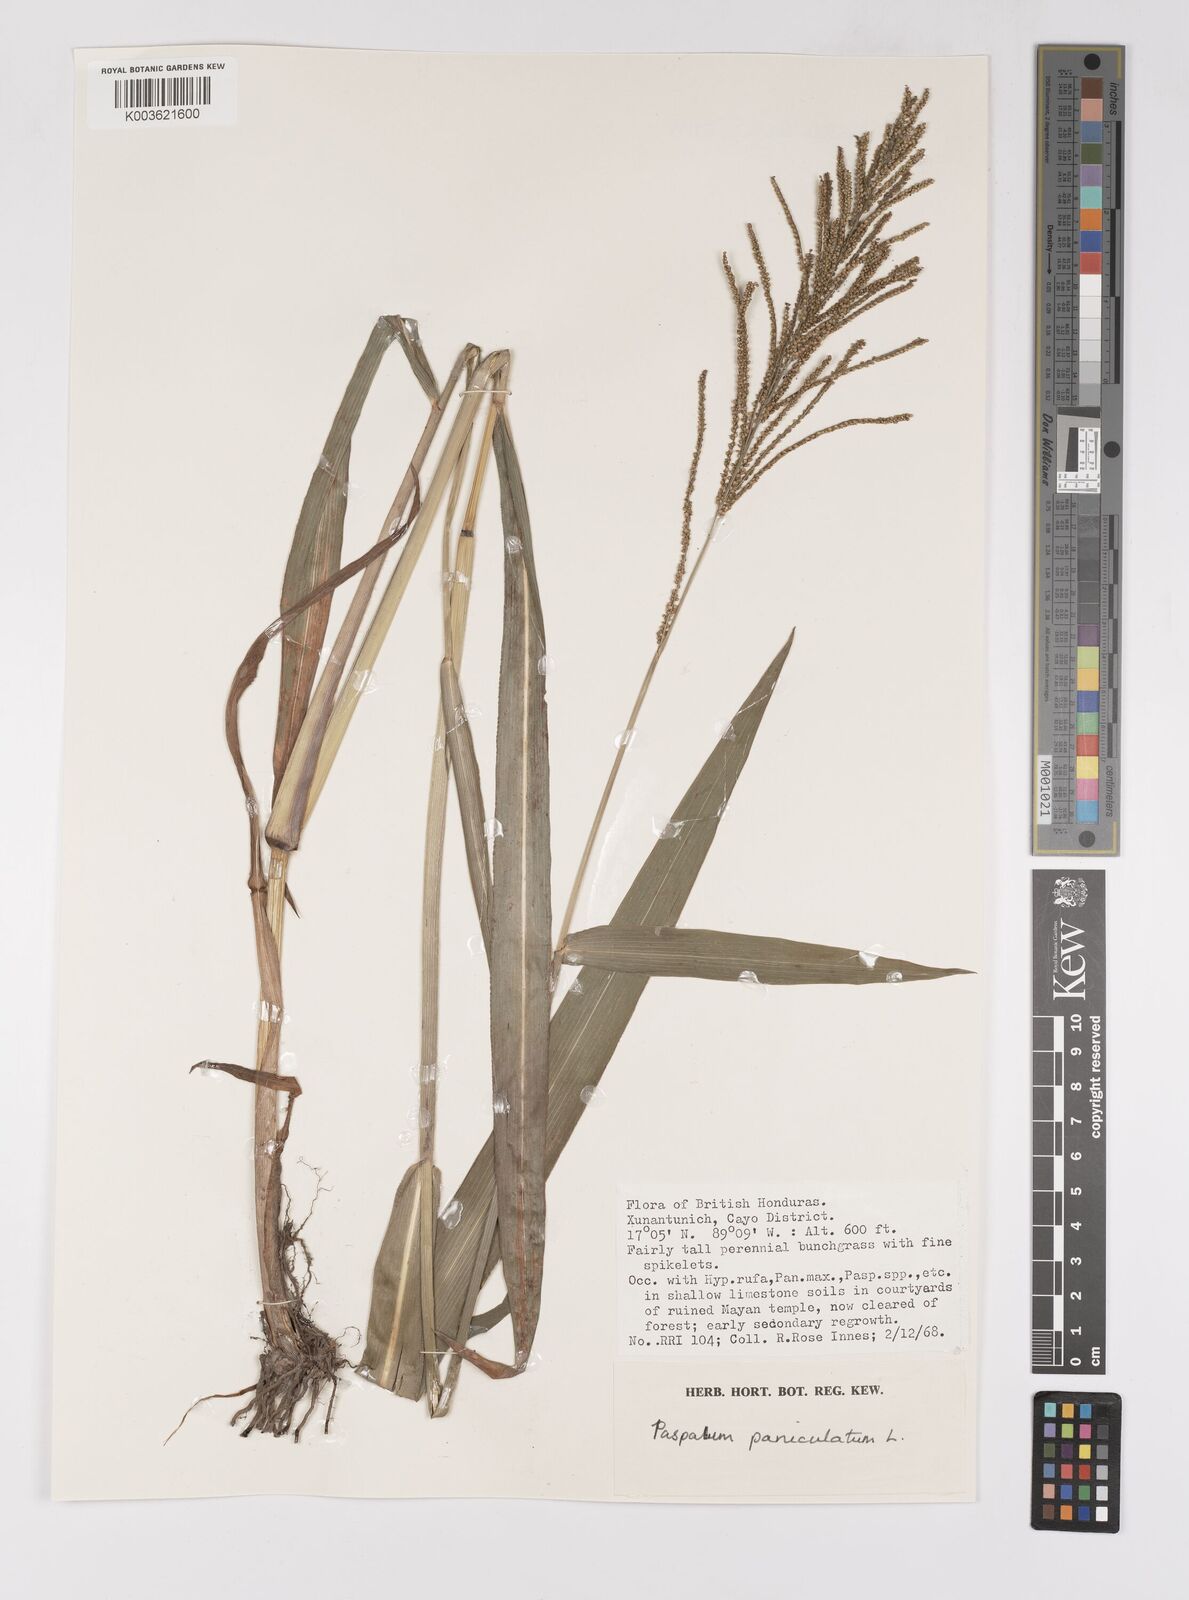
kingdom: Plantae
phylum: Tracheophyta
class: Liliopsida
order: Poales
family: Poaceae
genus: Paspalum
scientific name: Paspalum paniculatum
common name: Arrocillo
